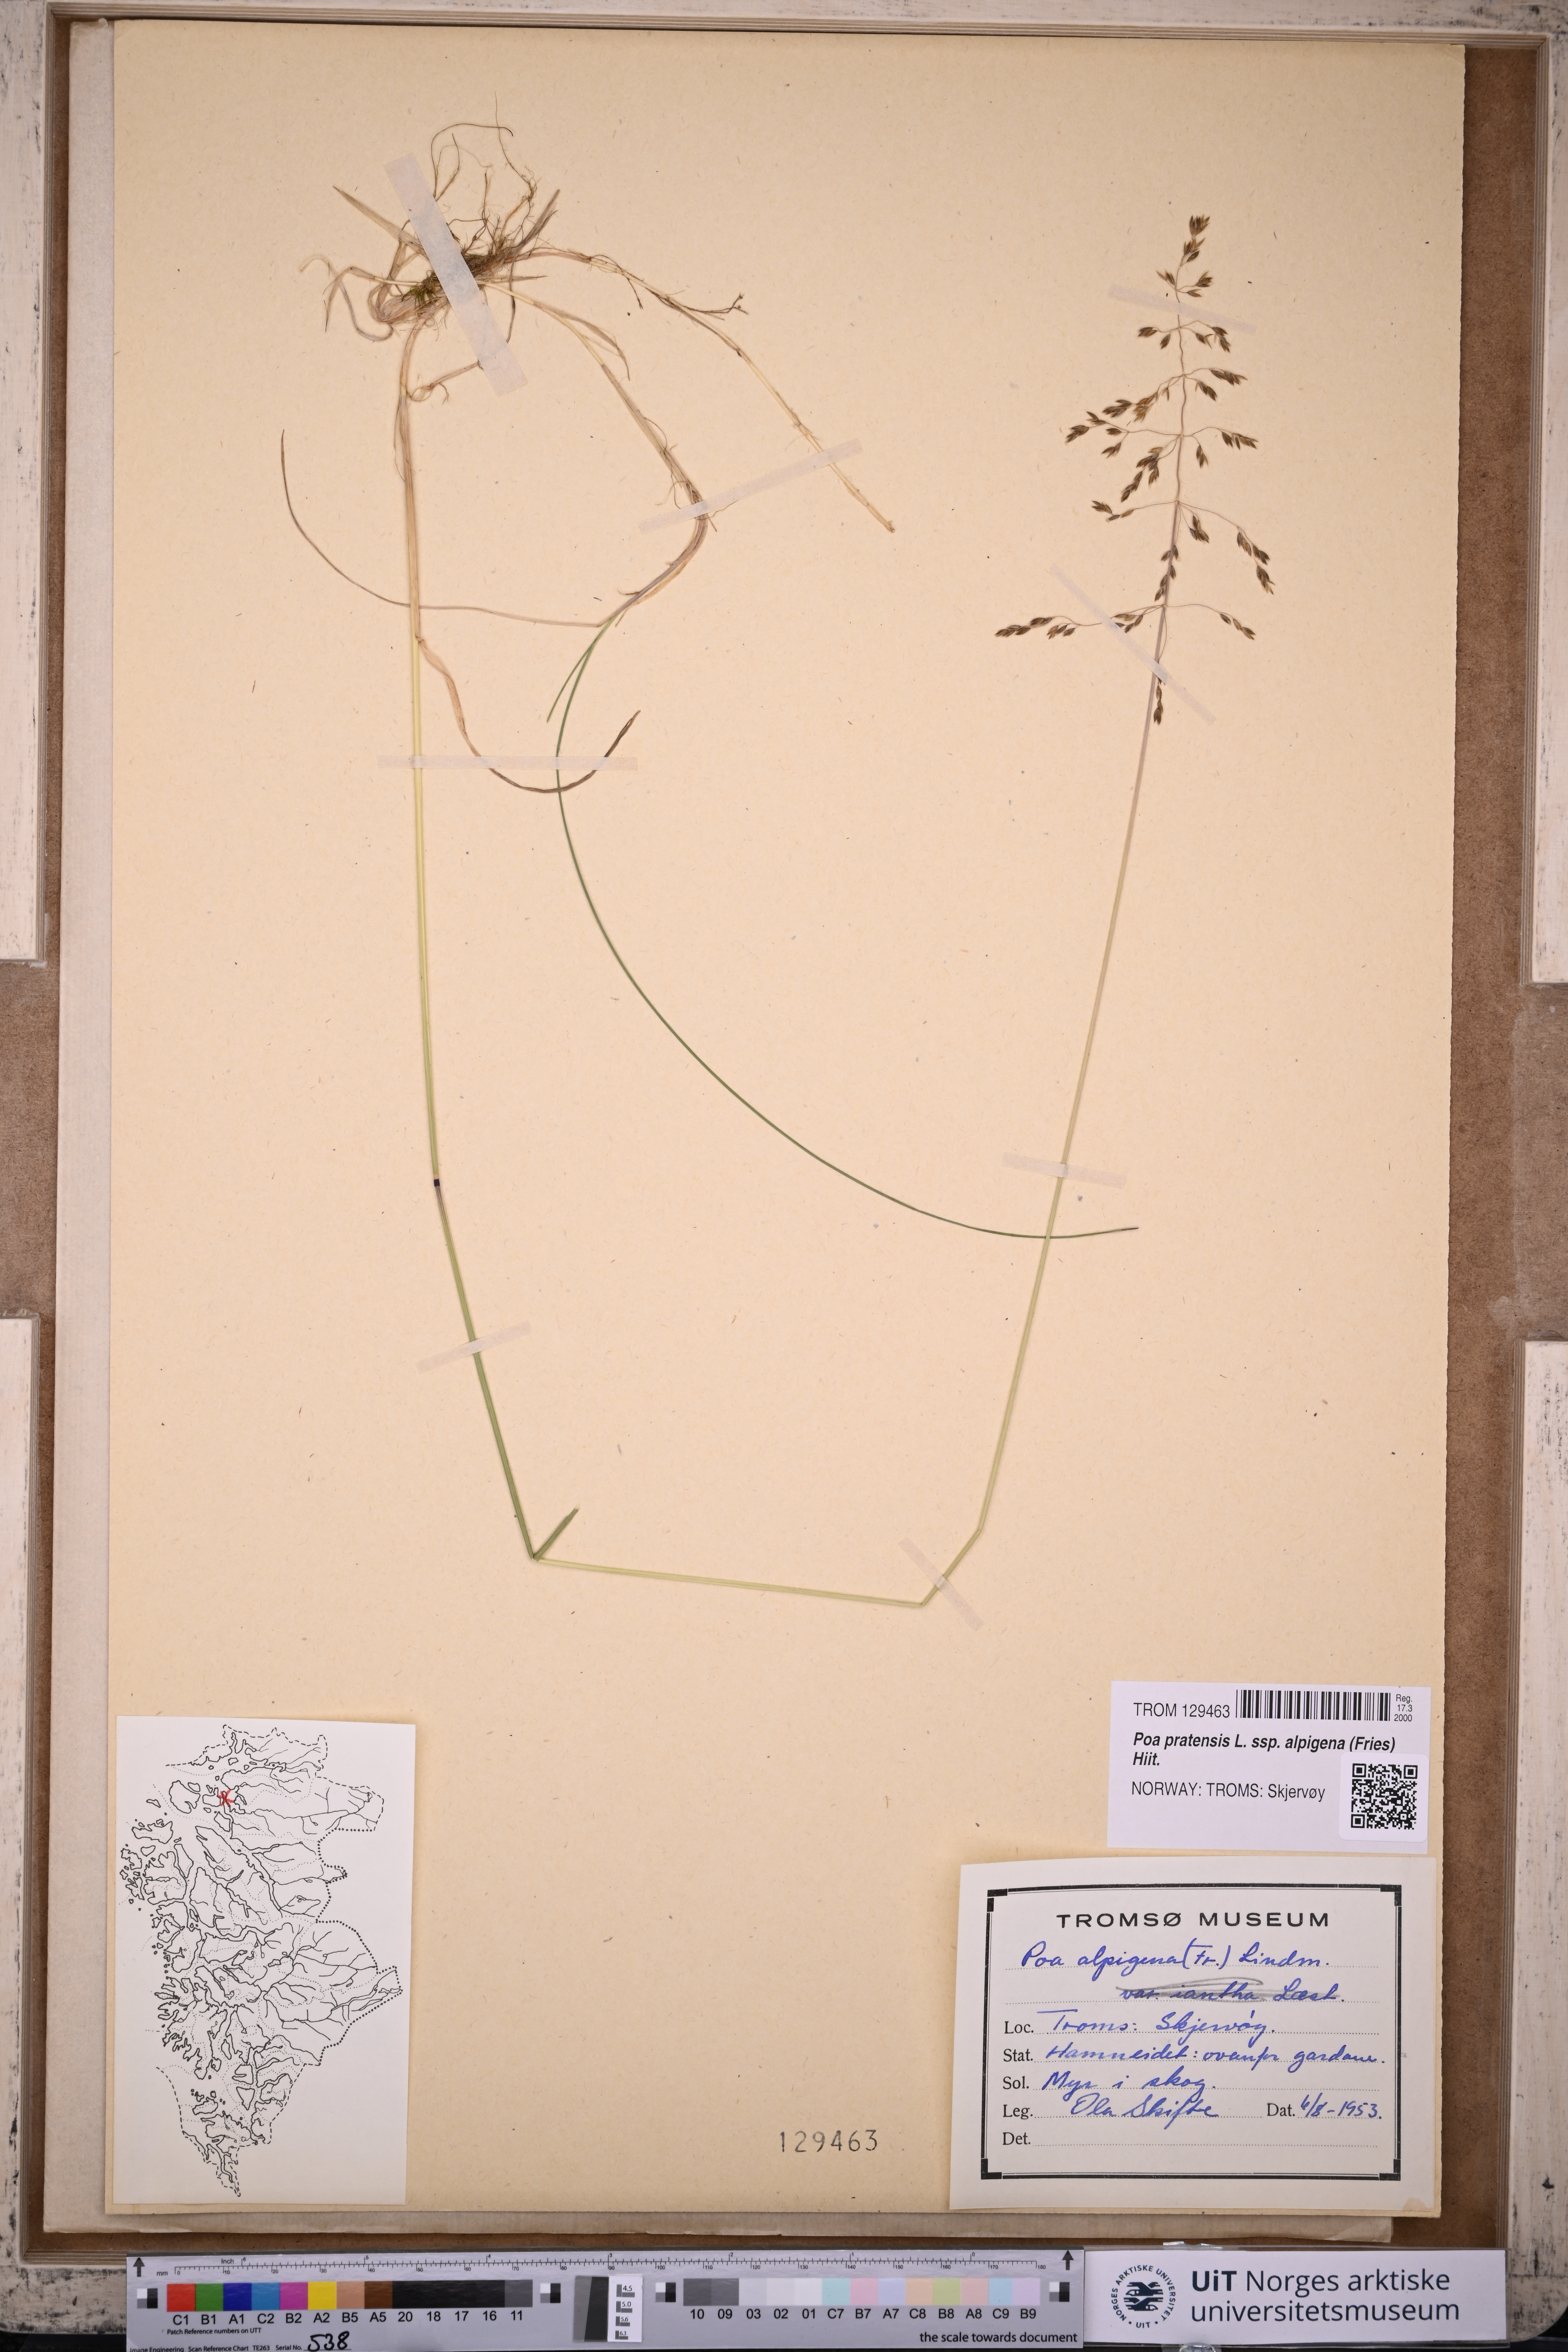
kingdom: Plantae
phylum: Tracheophyta
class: Liliopsida
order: Poales
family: Poaceae
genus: Poa
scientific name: Poa alpigena
